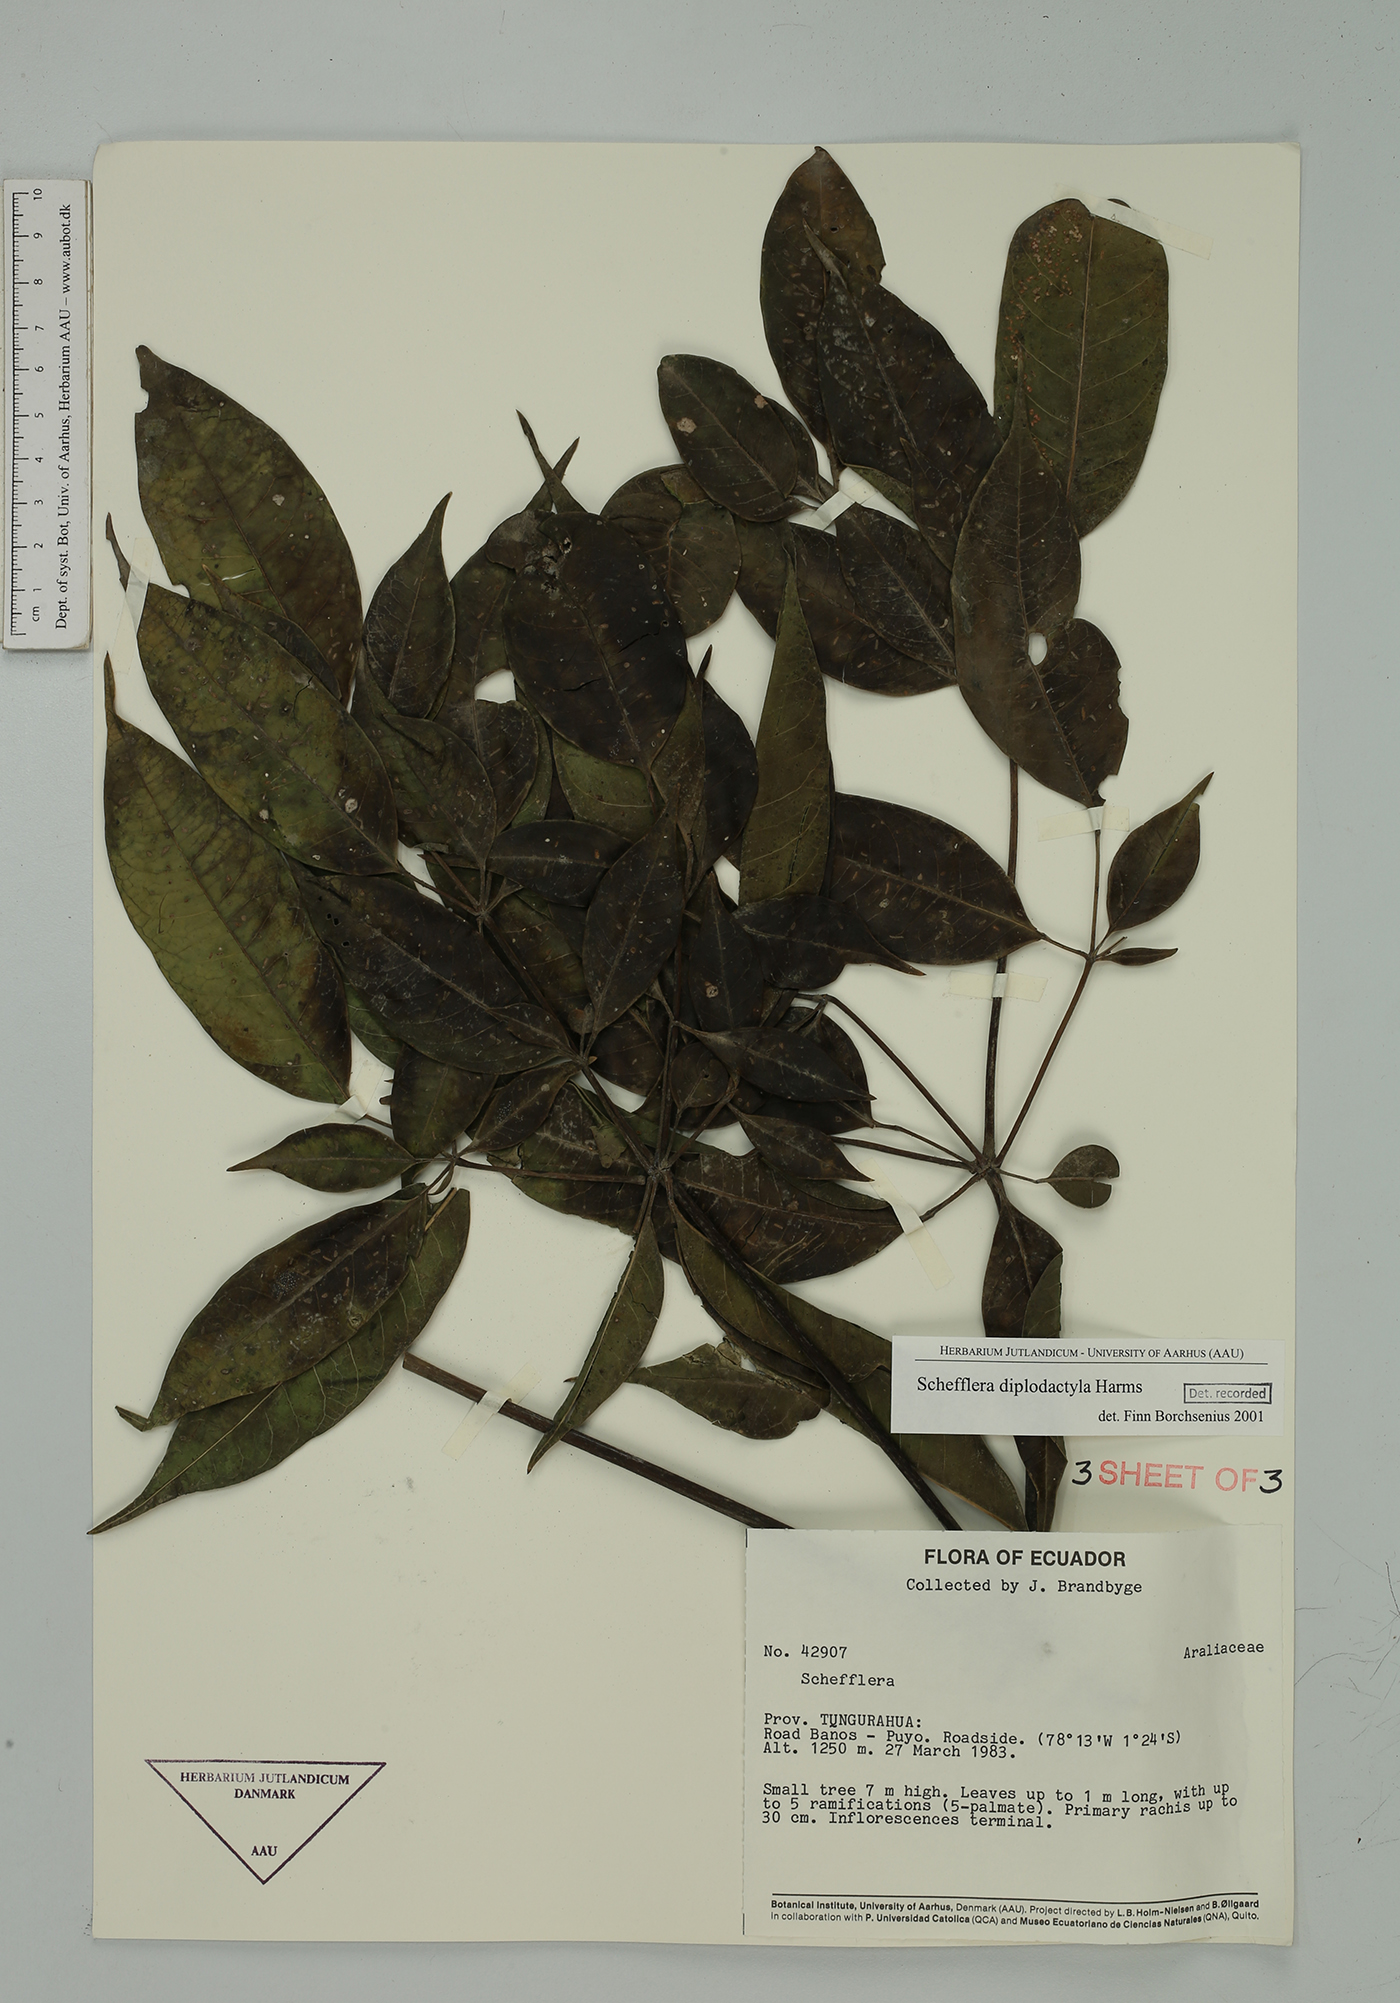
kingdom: Plantae
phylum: Tracheophyta
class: Magnoliopsida
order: Apiales
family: Araliaceae
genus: Sciodaphyllum
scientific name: Sciodaphyllum diplodactylum
